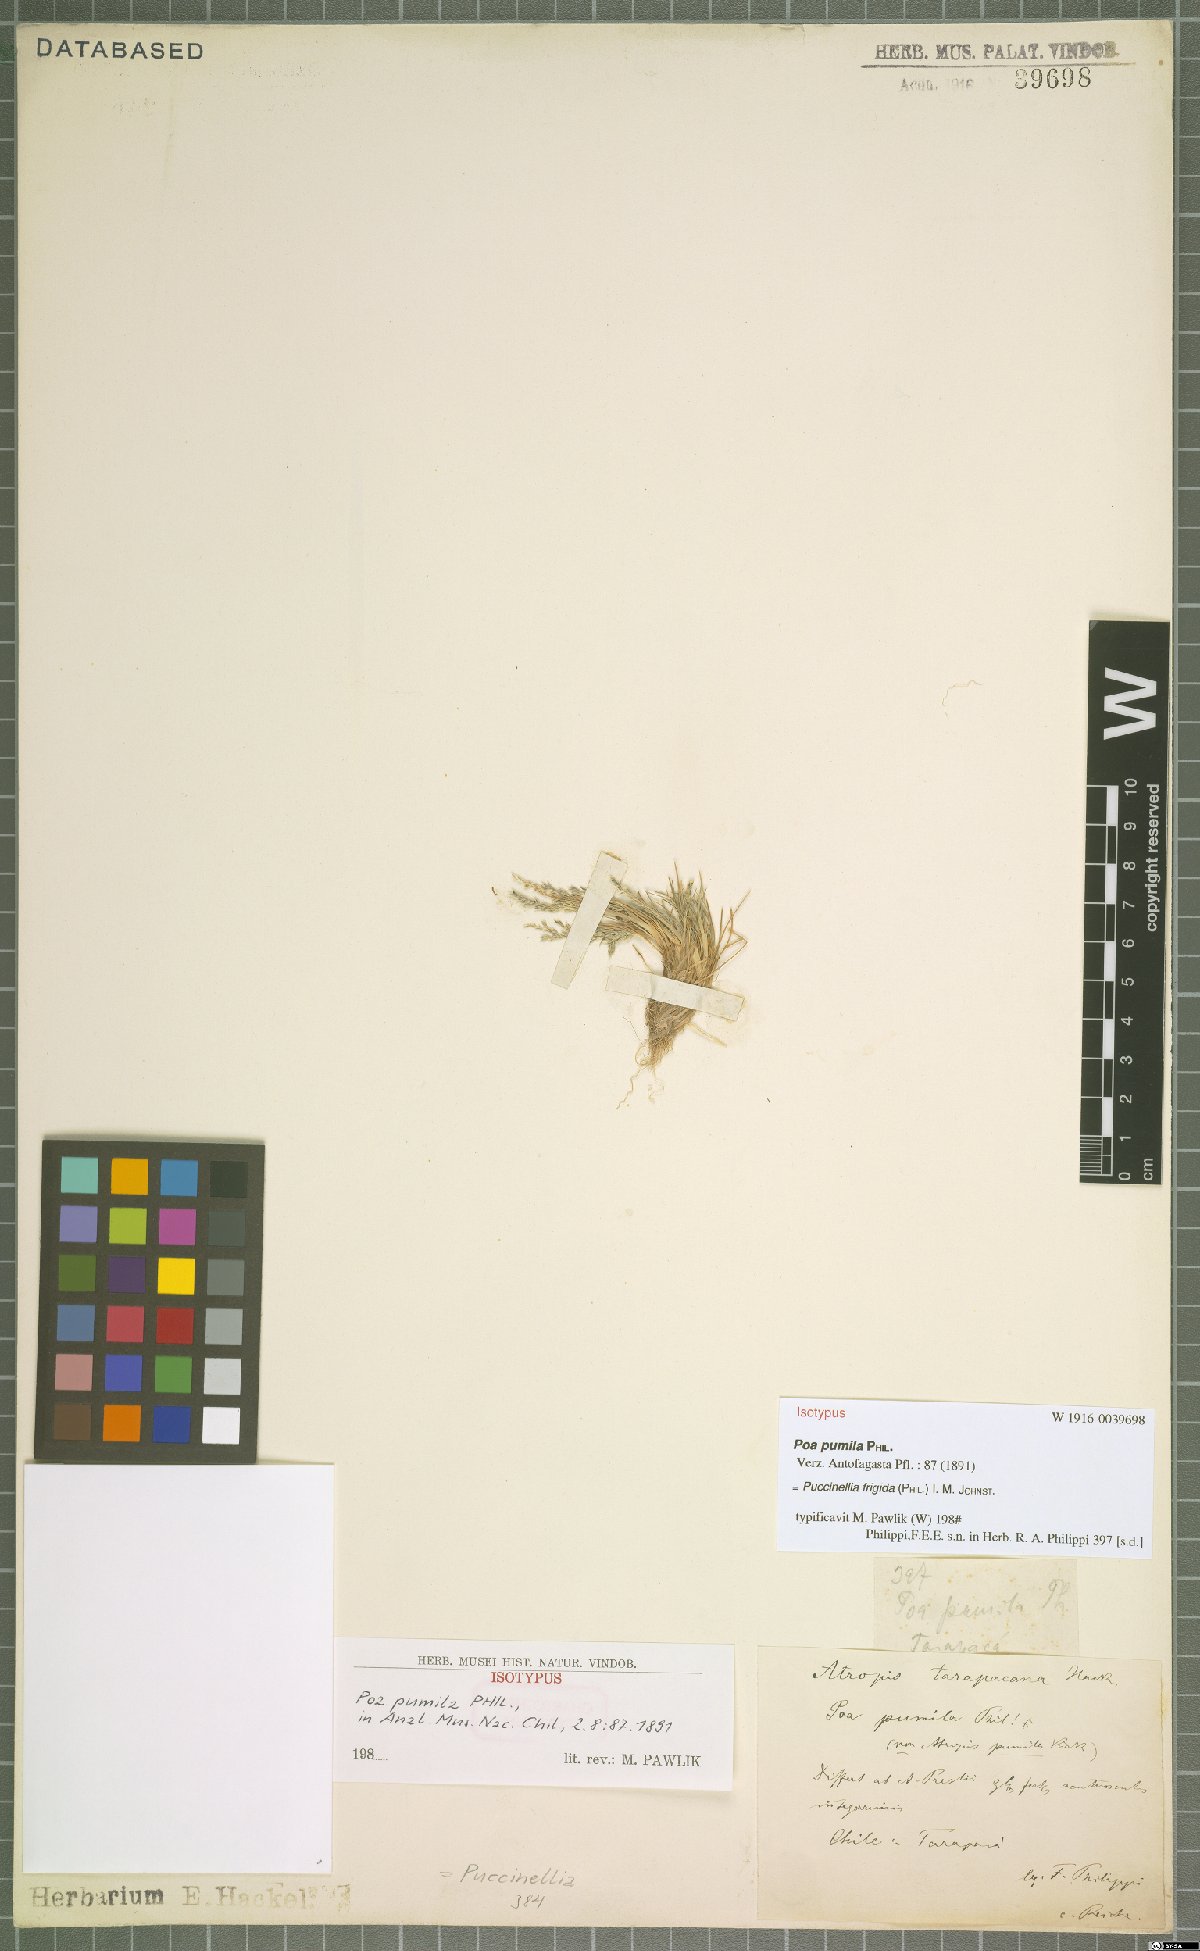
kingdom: Plantae
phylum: Tracheophyta
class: Liliopsida
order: Poales
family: Poaceae
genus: Puccinellia
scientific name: Puccinellia frigida
